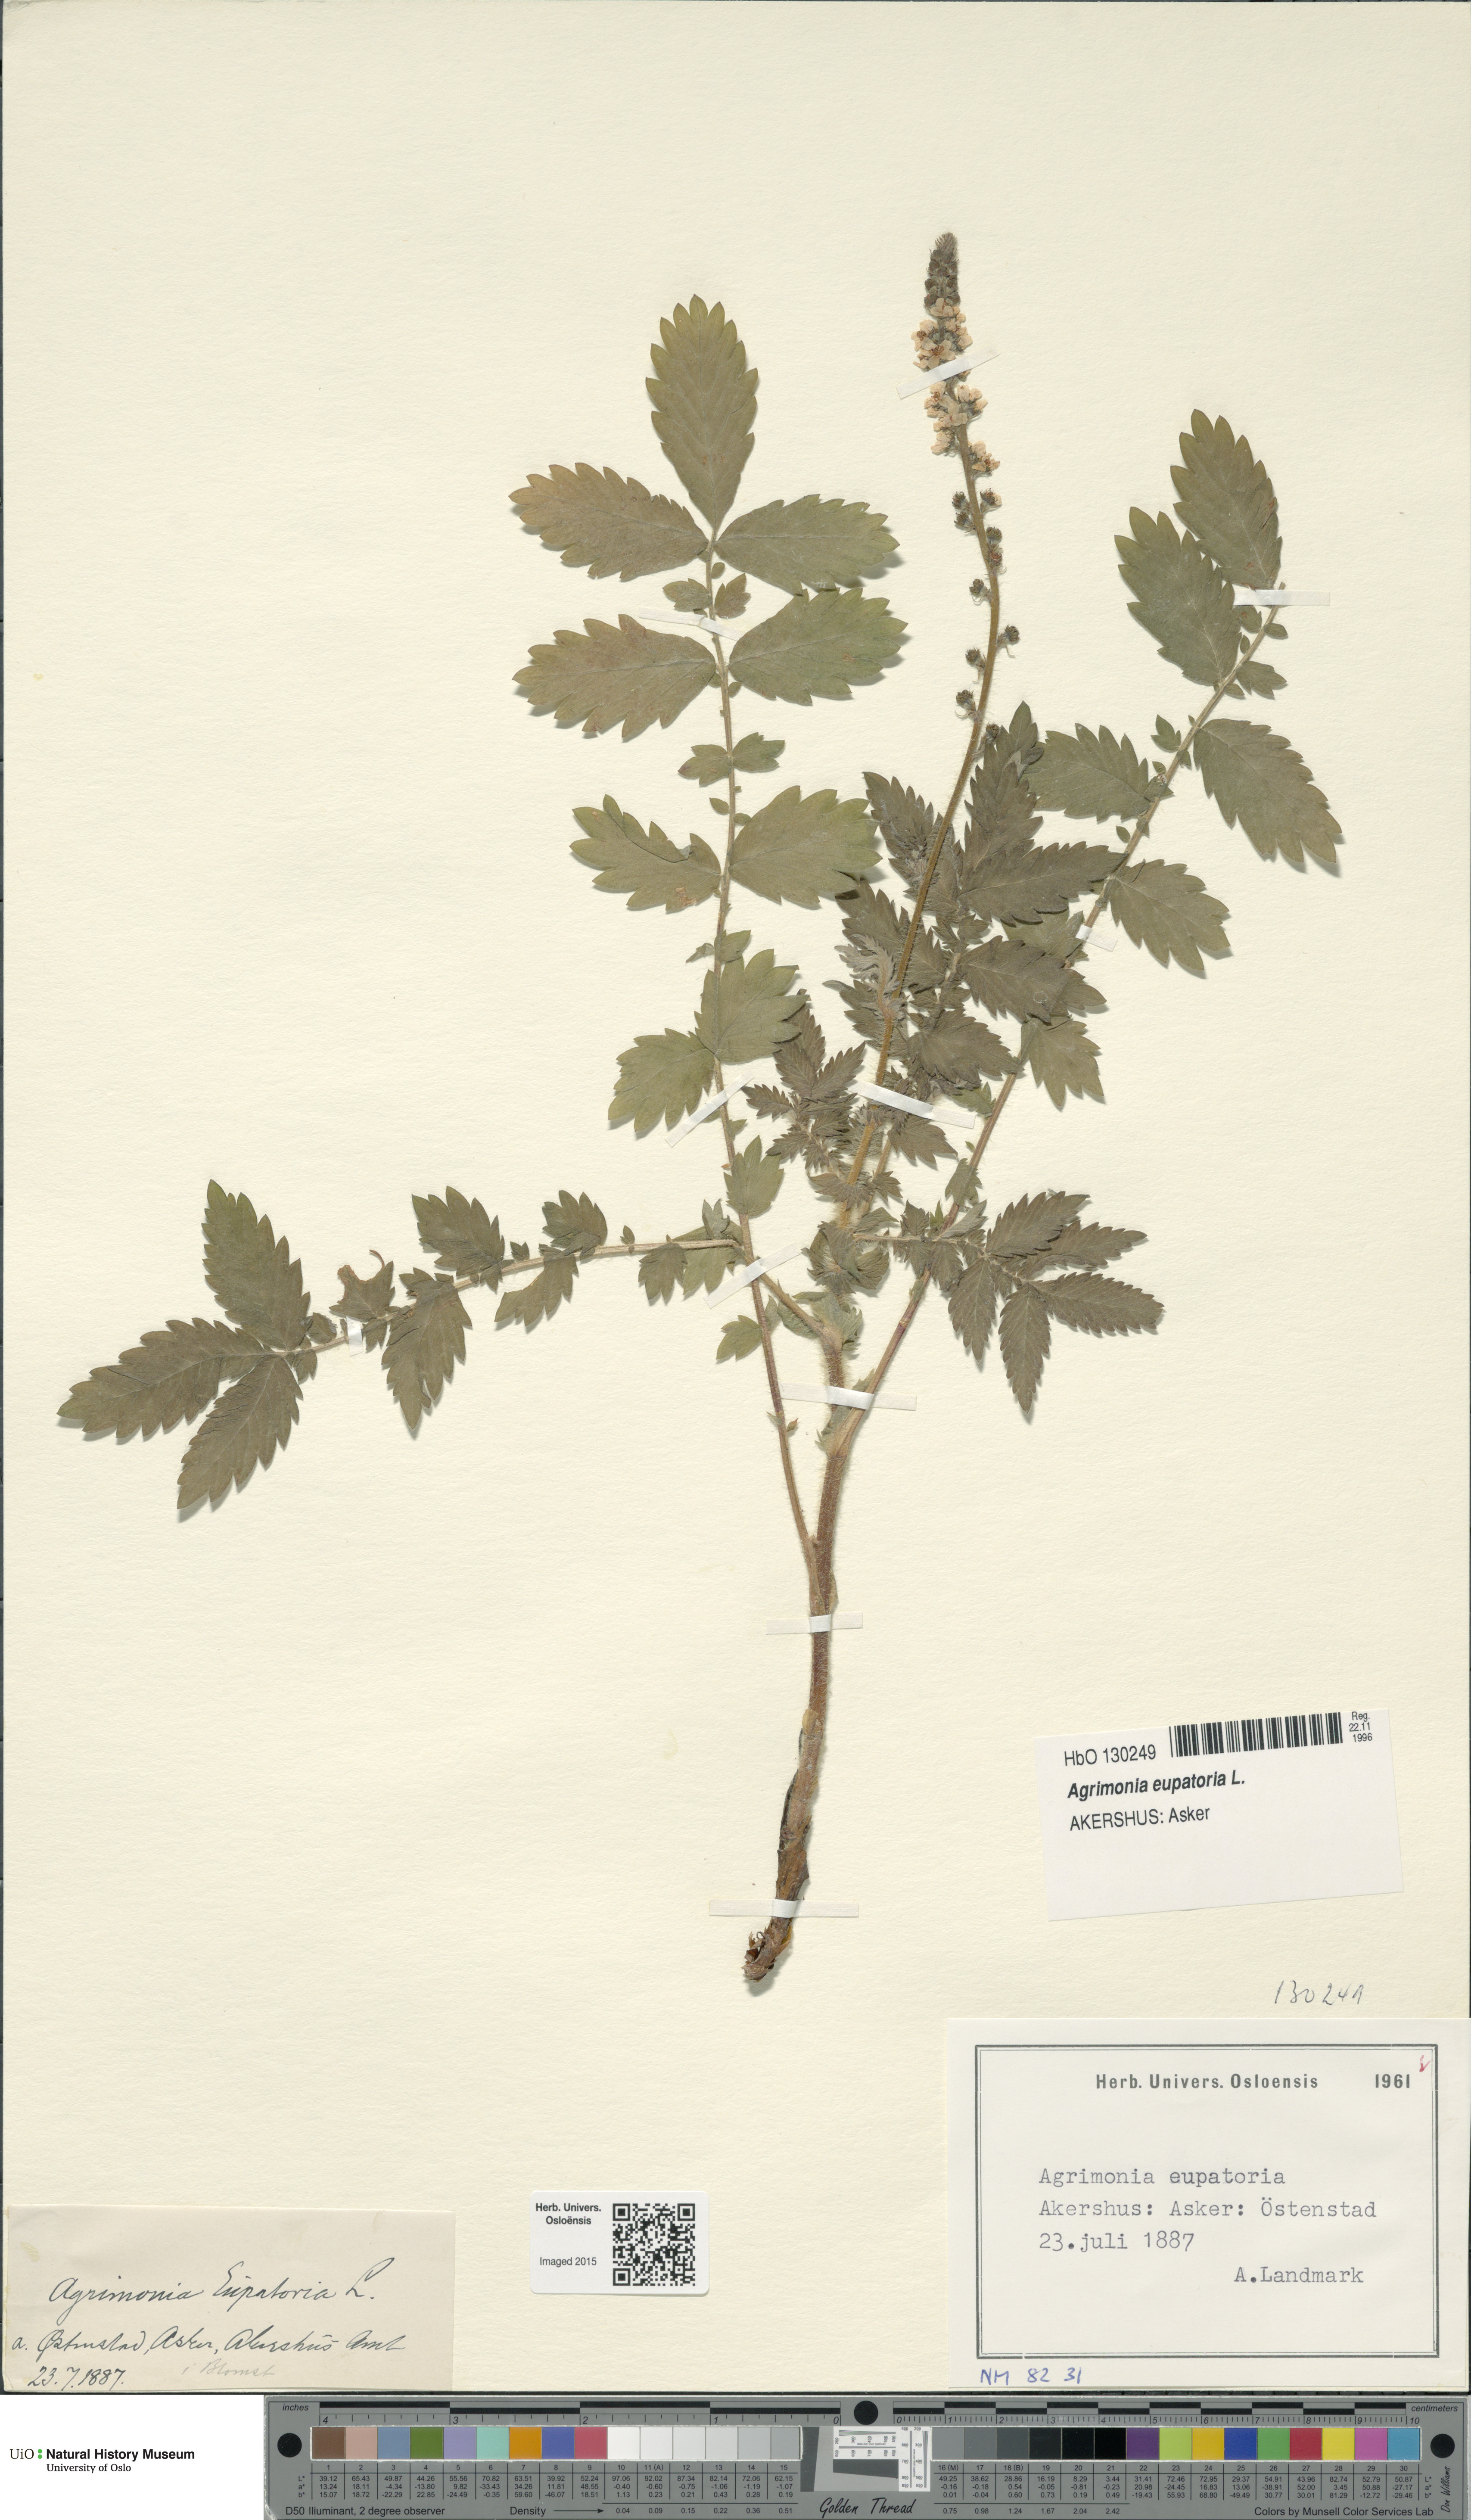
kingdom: Plantae
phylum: Tracheophyta
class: Magnoliopsida
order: Rosales
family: Rosaceae
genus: Agrimonia
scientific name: Agrimonia eupatoria
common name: Agrimony
